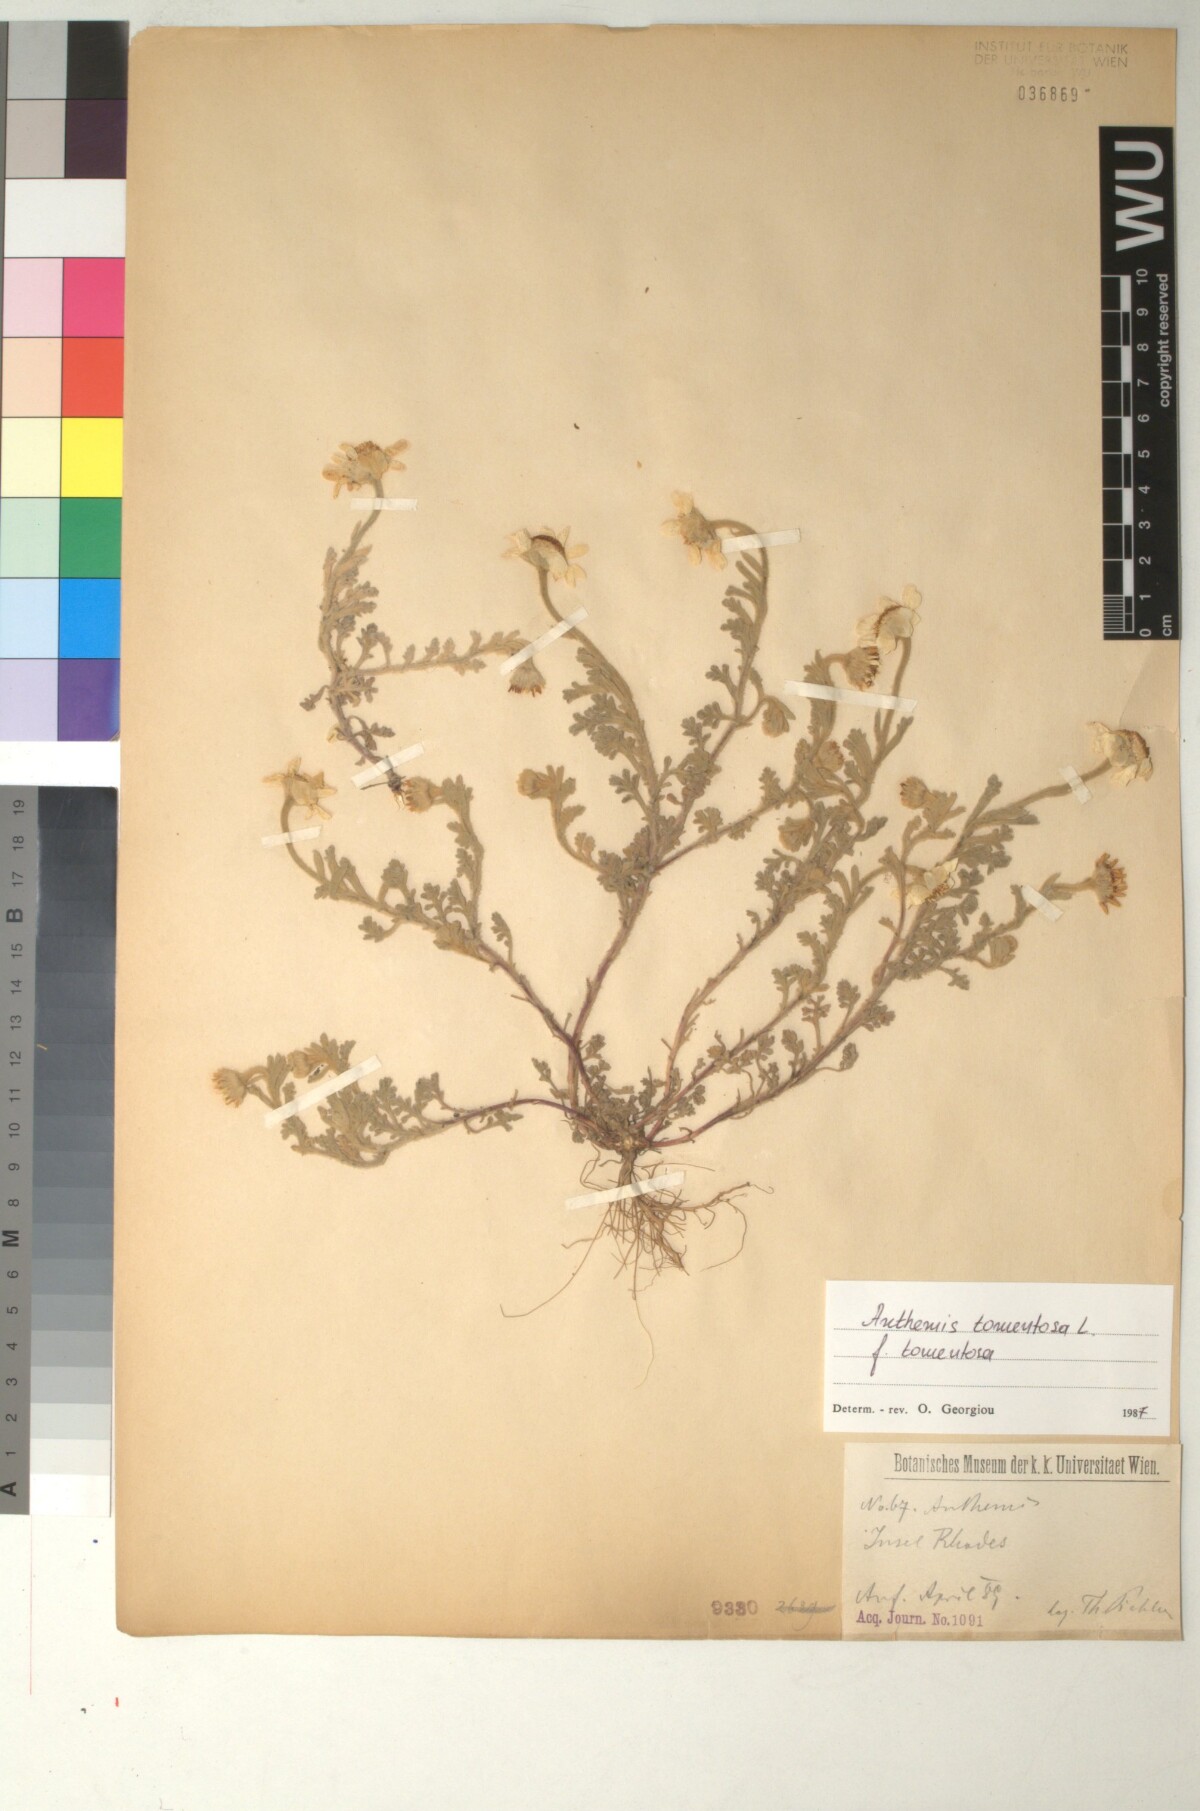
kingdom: Plantae
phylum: Tracheophyta
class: Magnoliopsida
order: Asterales
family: Asteraceae
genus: Anthemis
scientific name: Anthemis tomentosa
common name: Woolly chamomile
